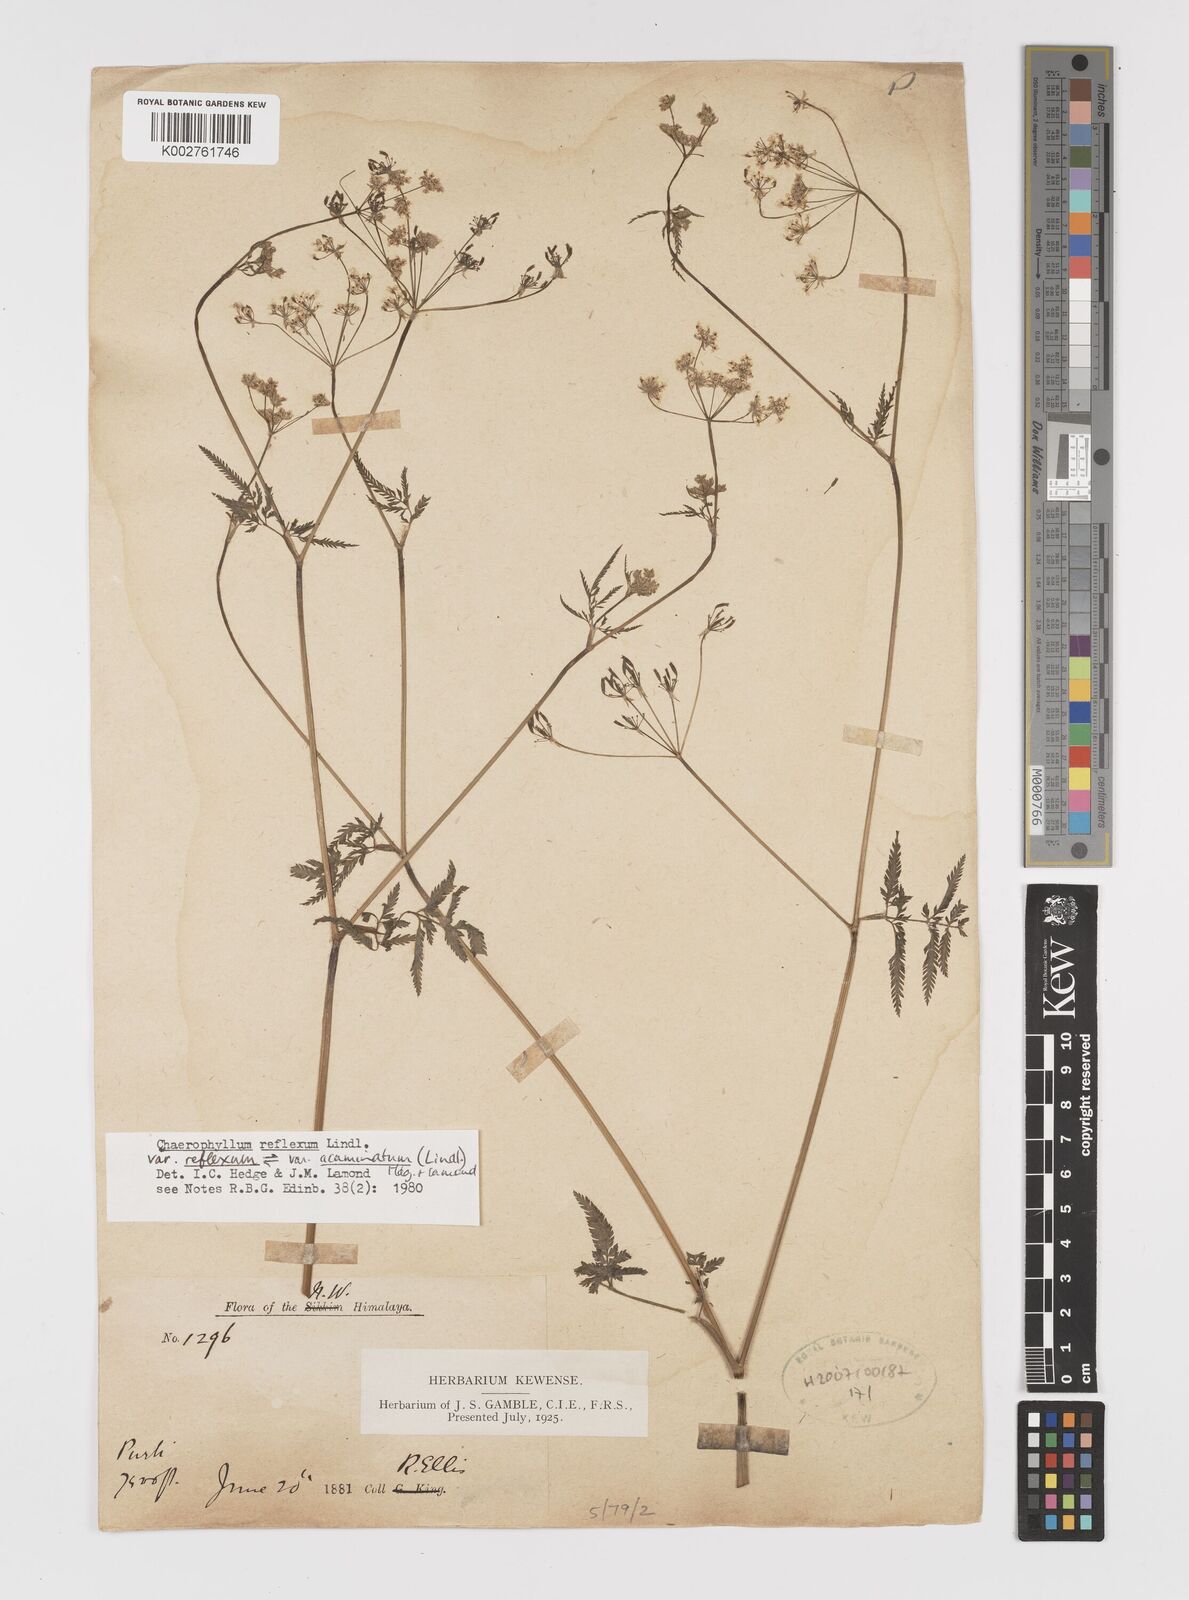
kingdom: Plantae
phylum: Tracheophyta
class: Magnoliopsida
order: Apiales
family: Apiaceae
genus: Chaerophyllum
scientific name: Chaerophyllum reflexum
